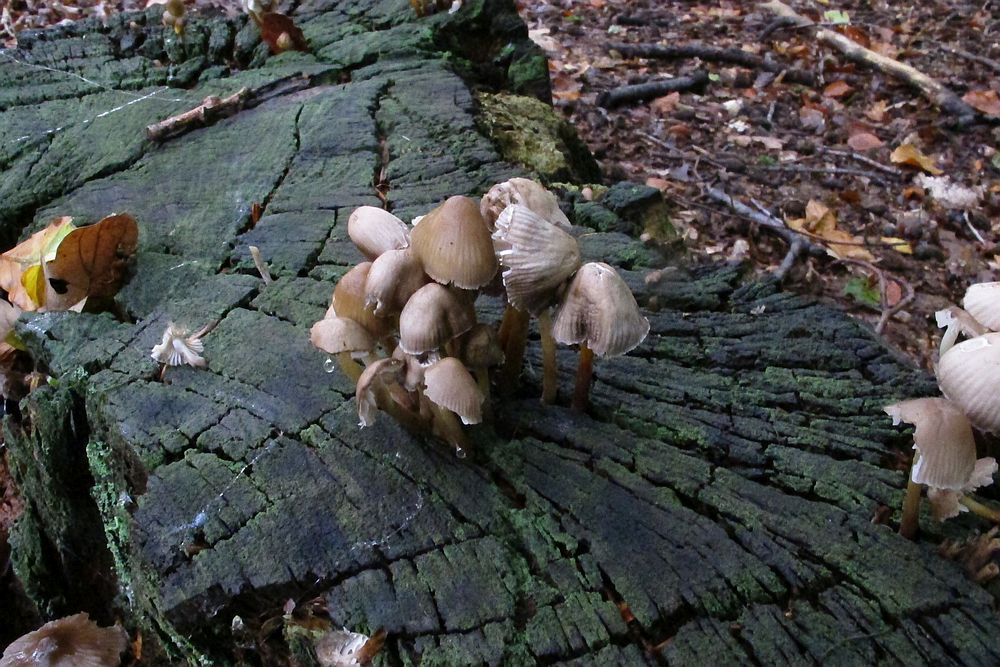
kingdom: Fungi
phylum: Basidiomycota
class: Agaricomycetes
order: Agaricales
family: Mycenaceae
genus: Mycena
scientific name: Mycena inclinata
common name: nikkende huesvamp
